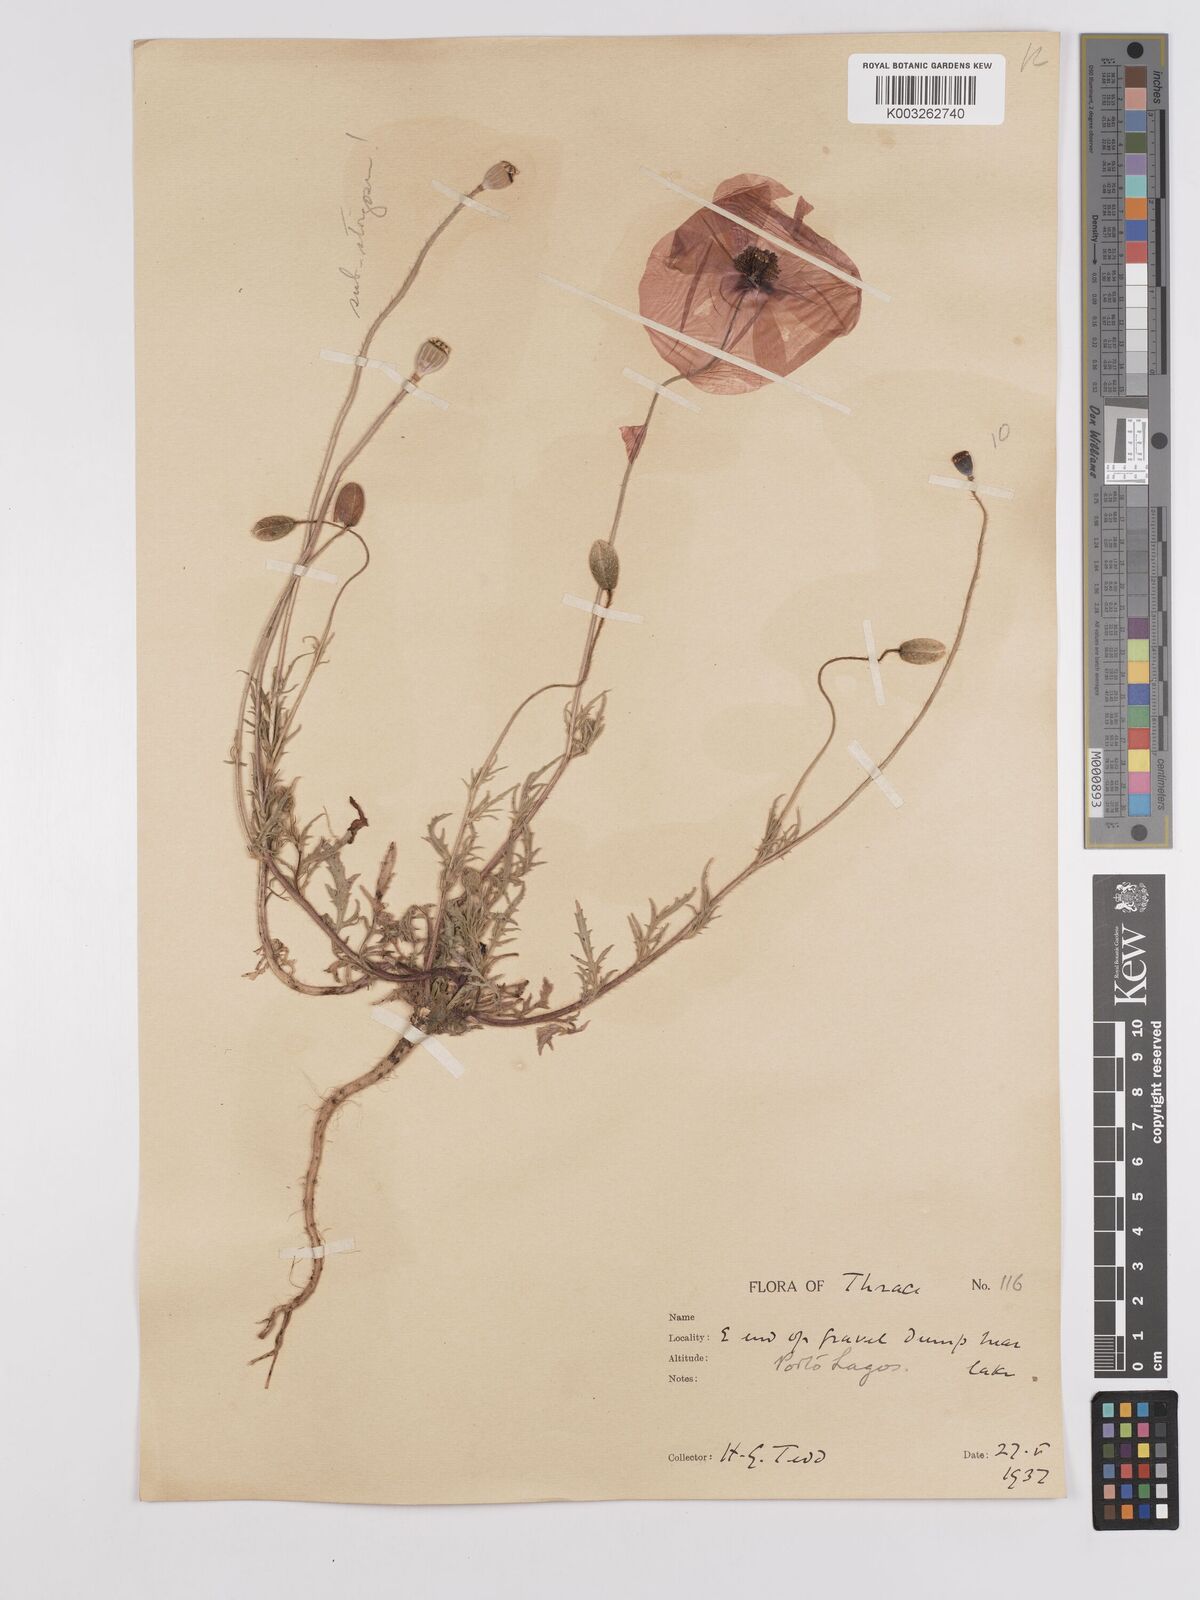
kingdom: Plantae
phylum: Tracheophyta
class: Magnoliopsida
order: Ranunculales
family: Papaveraceae
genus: Papaver
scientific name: Papaver
